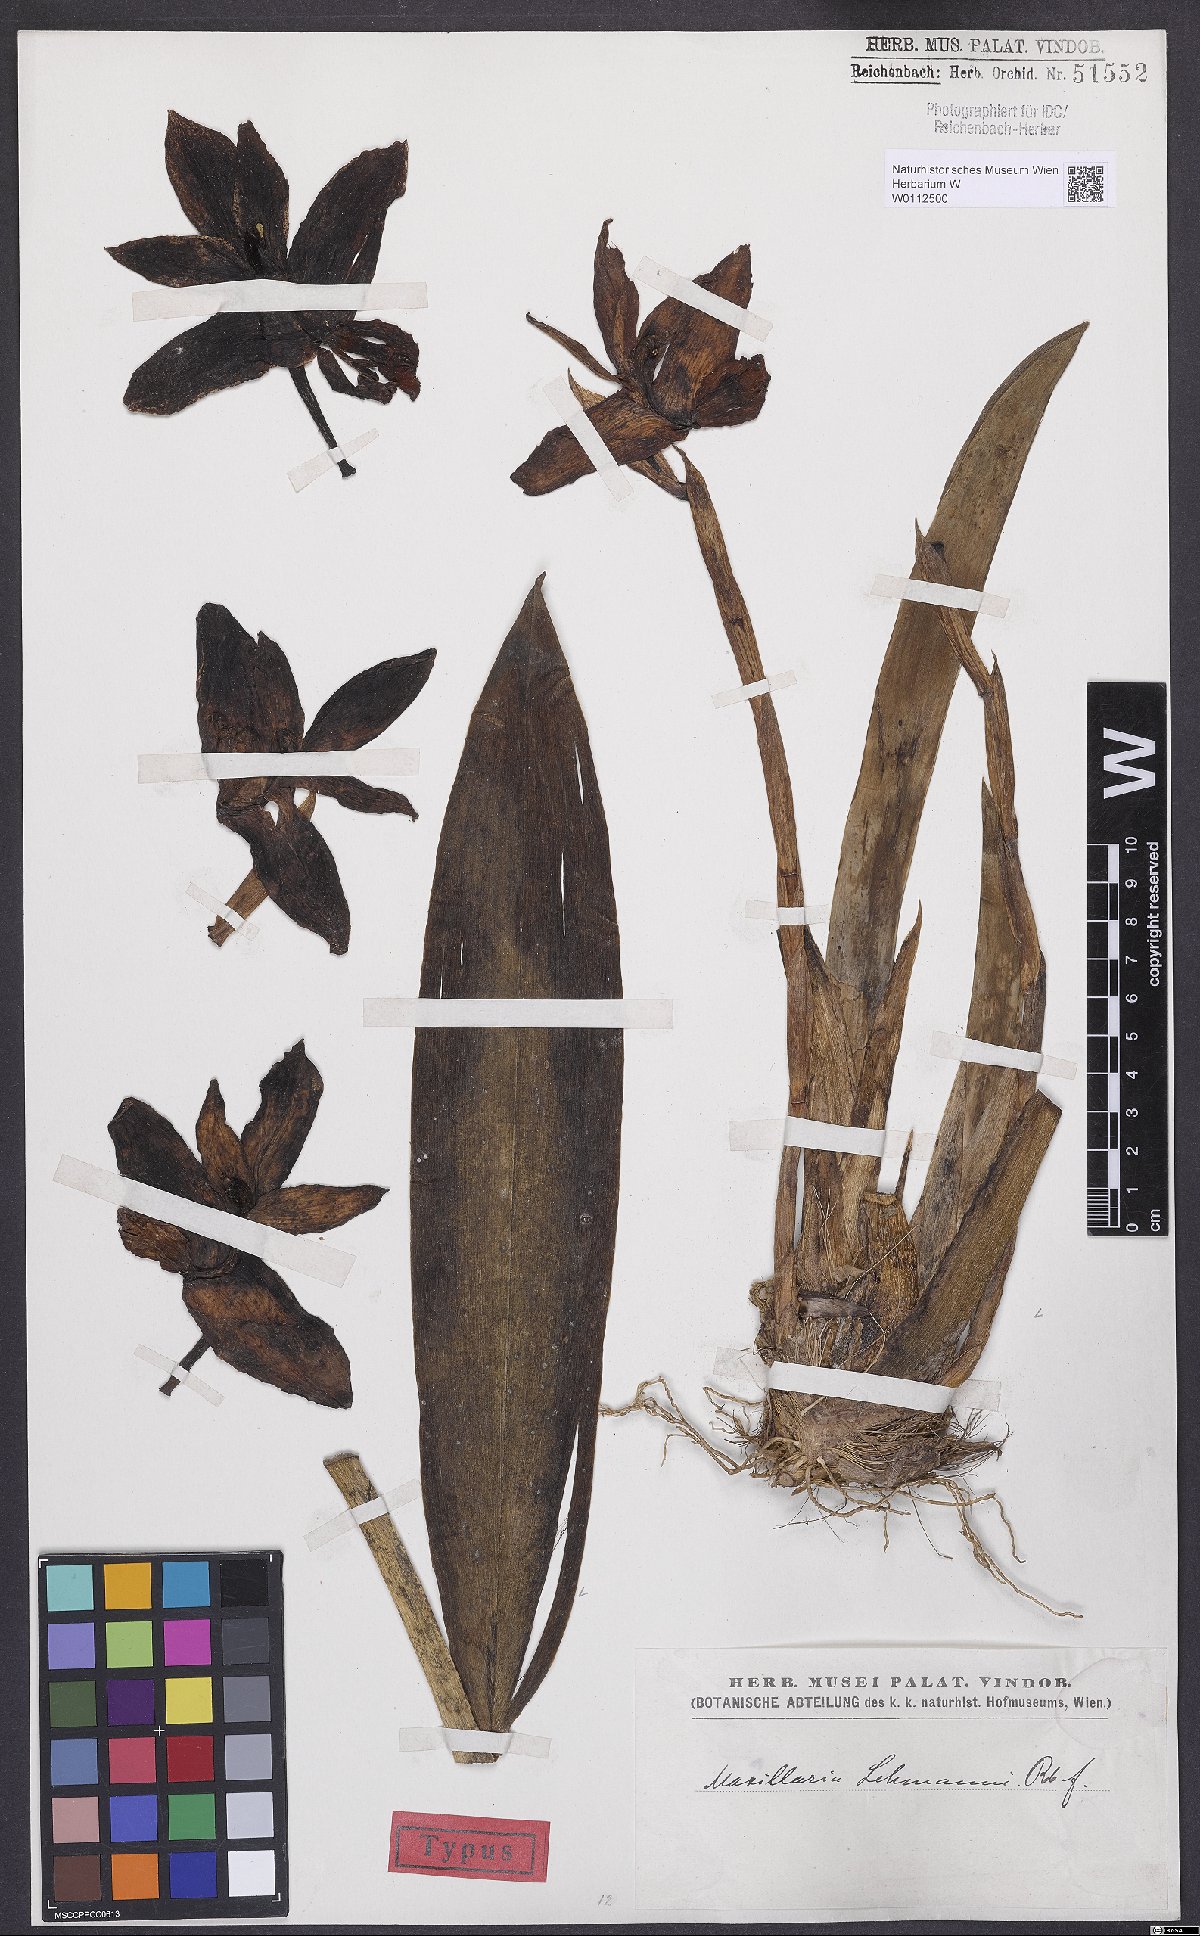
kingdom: Plantae
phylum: Tracheophyta
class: Liliopsida
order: Asparagales
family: Orchidaceae
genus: Maxillaria
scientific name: Maxillaria lehmannii
